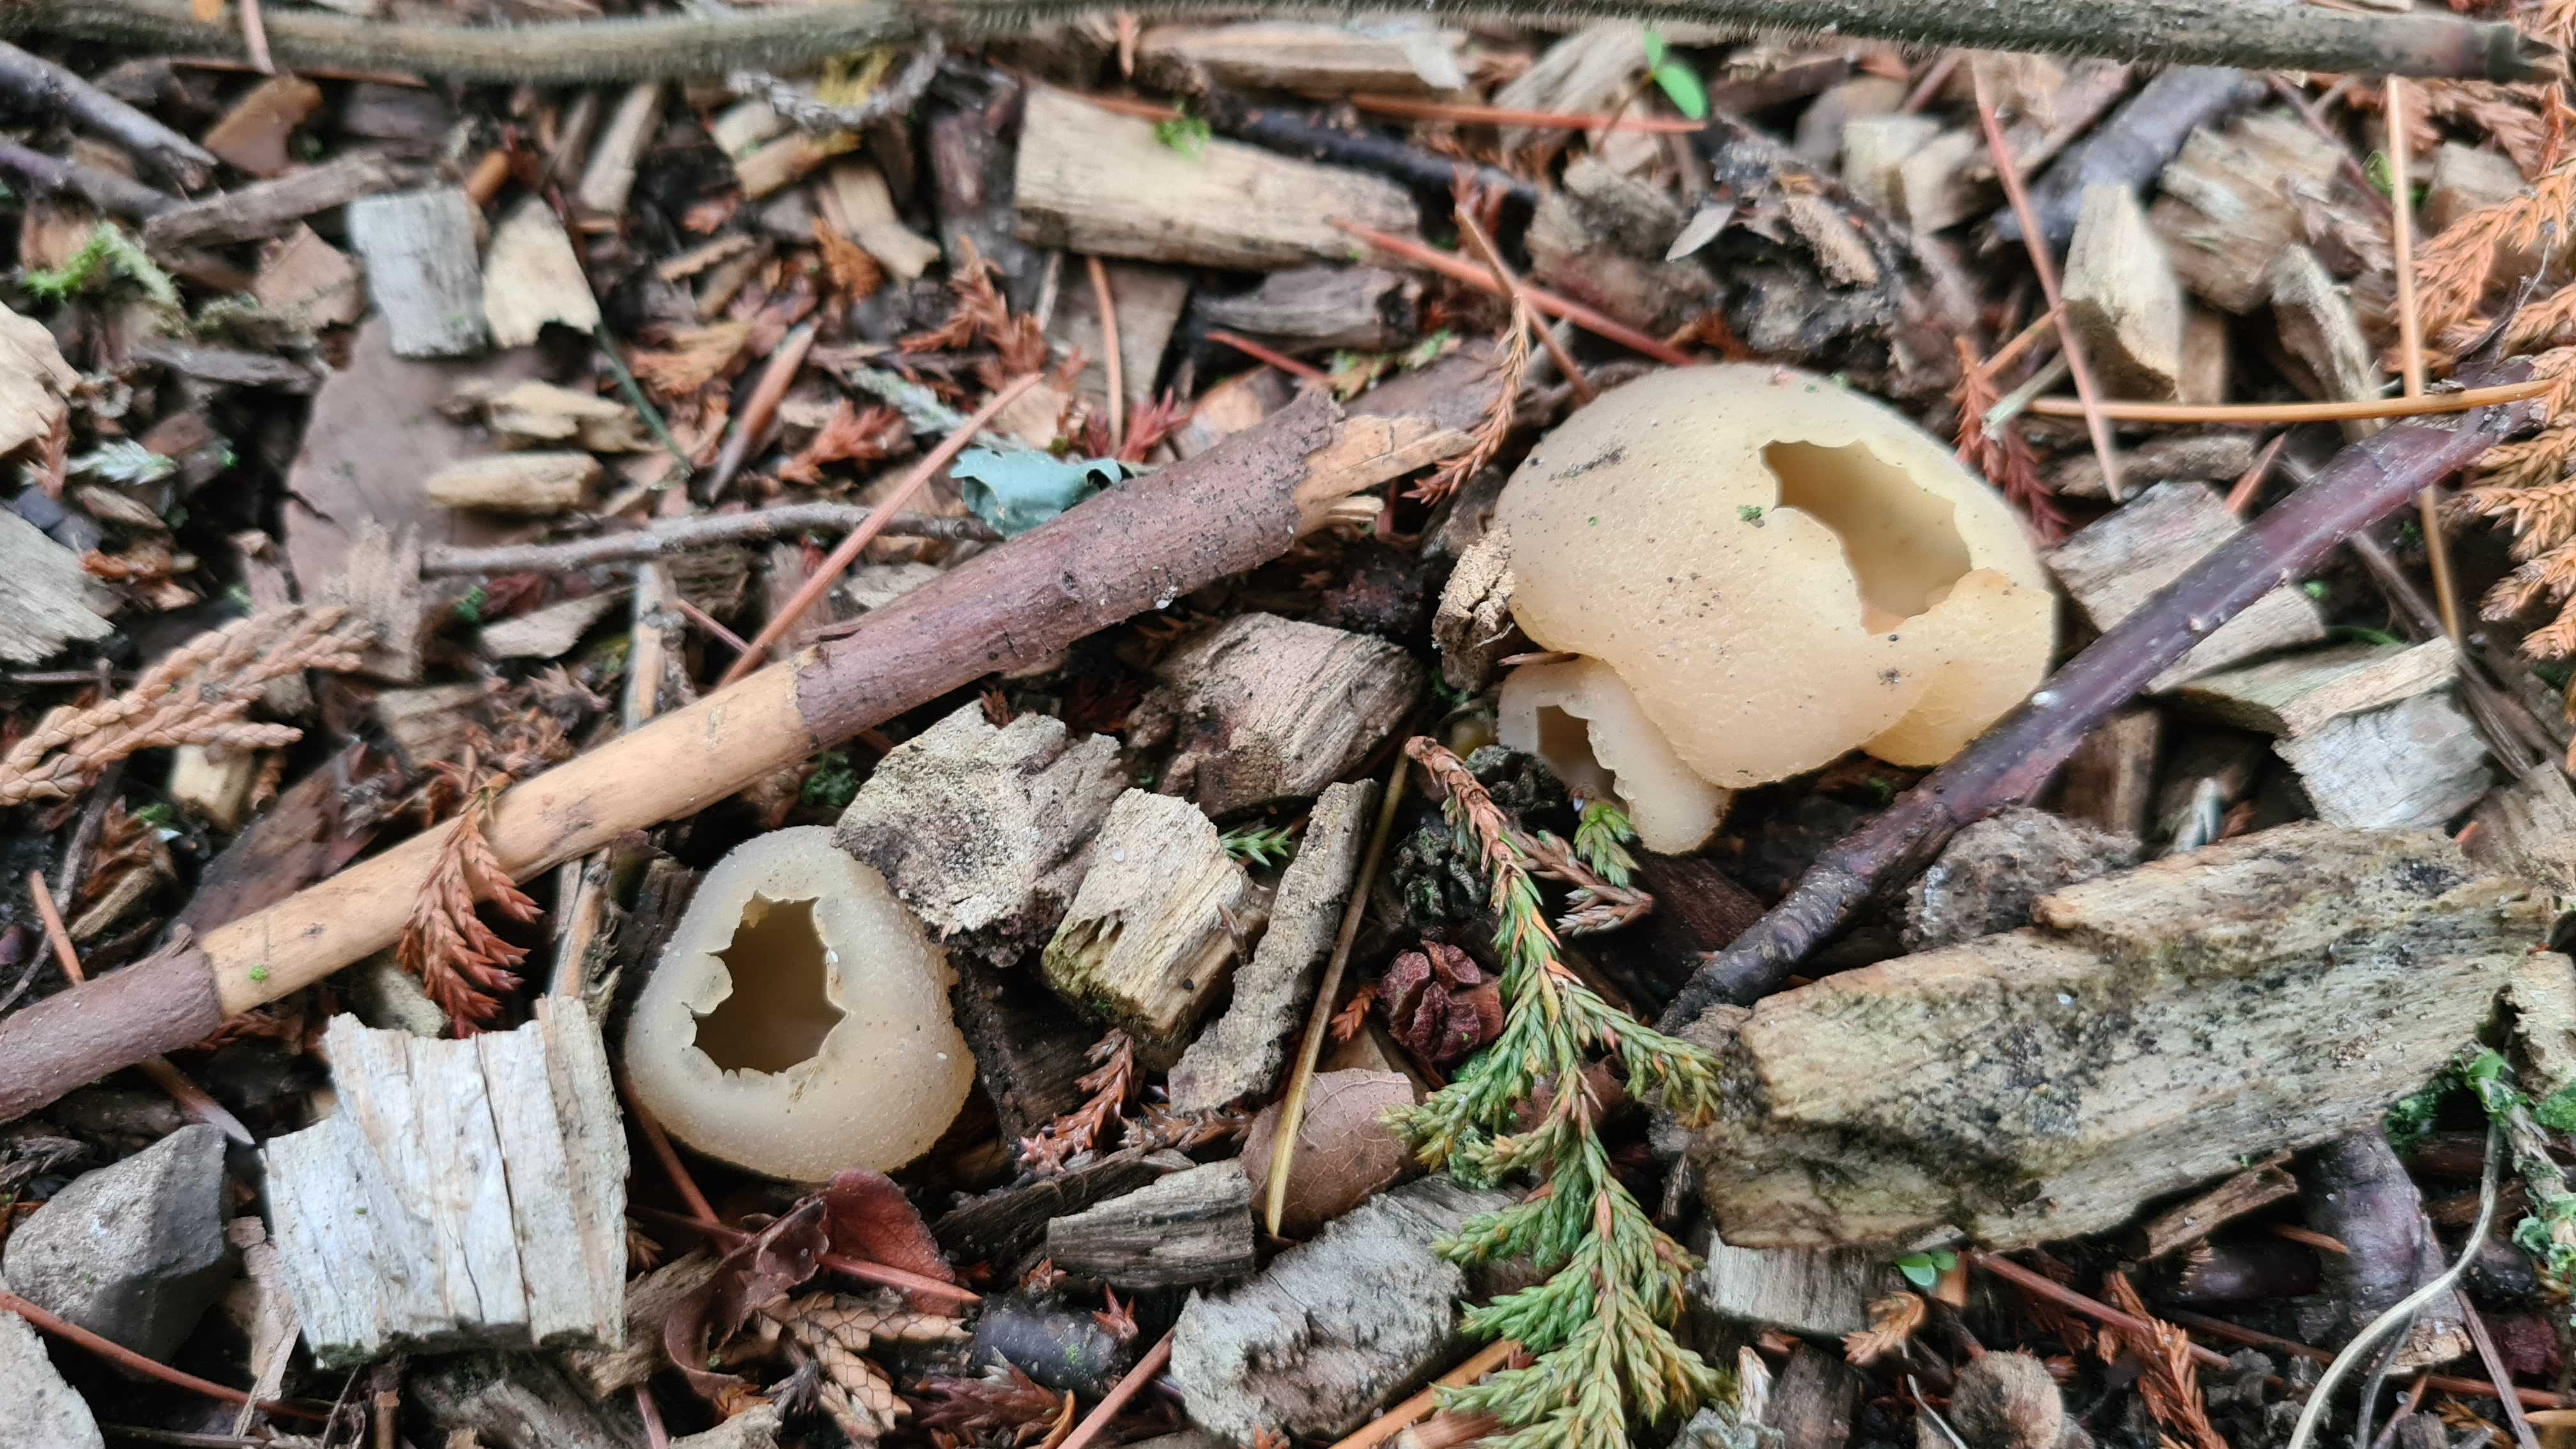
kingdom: Fungi
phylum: Ascomycota
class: Pezizomycetes
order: Pezizales
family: Pezizaceae
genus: Peziza
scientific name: Peziza
